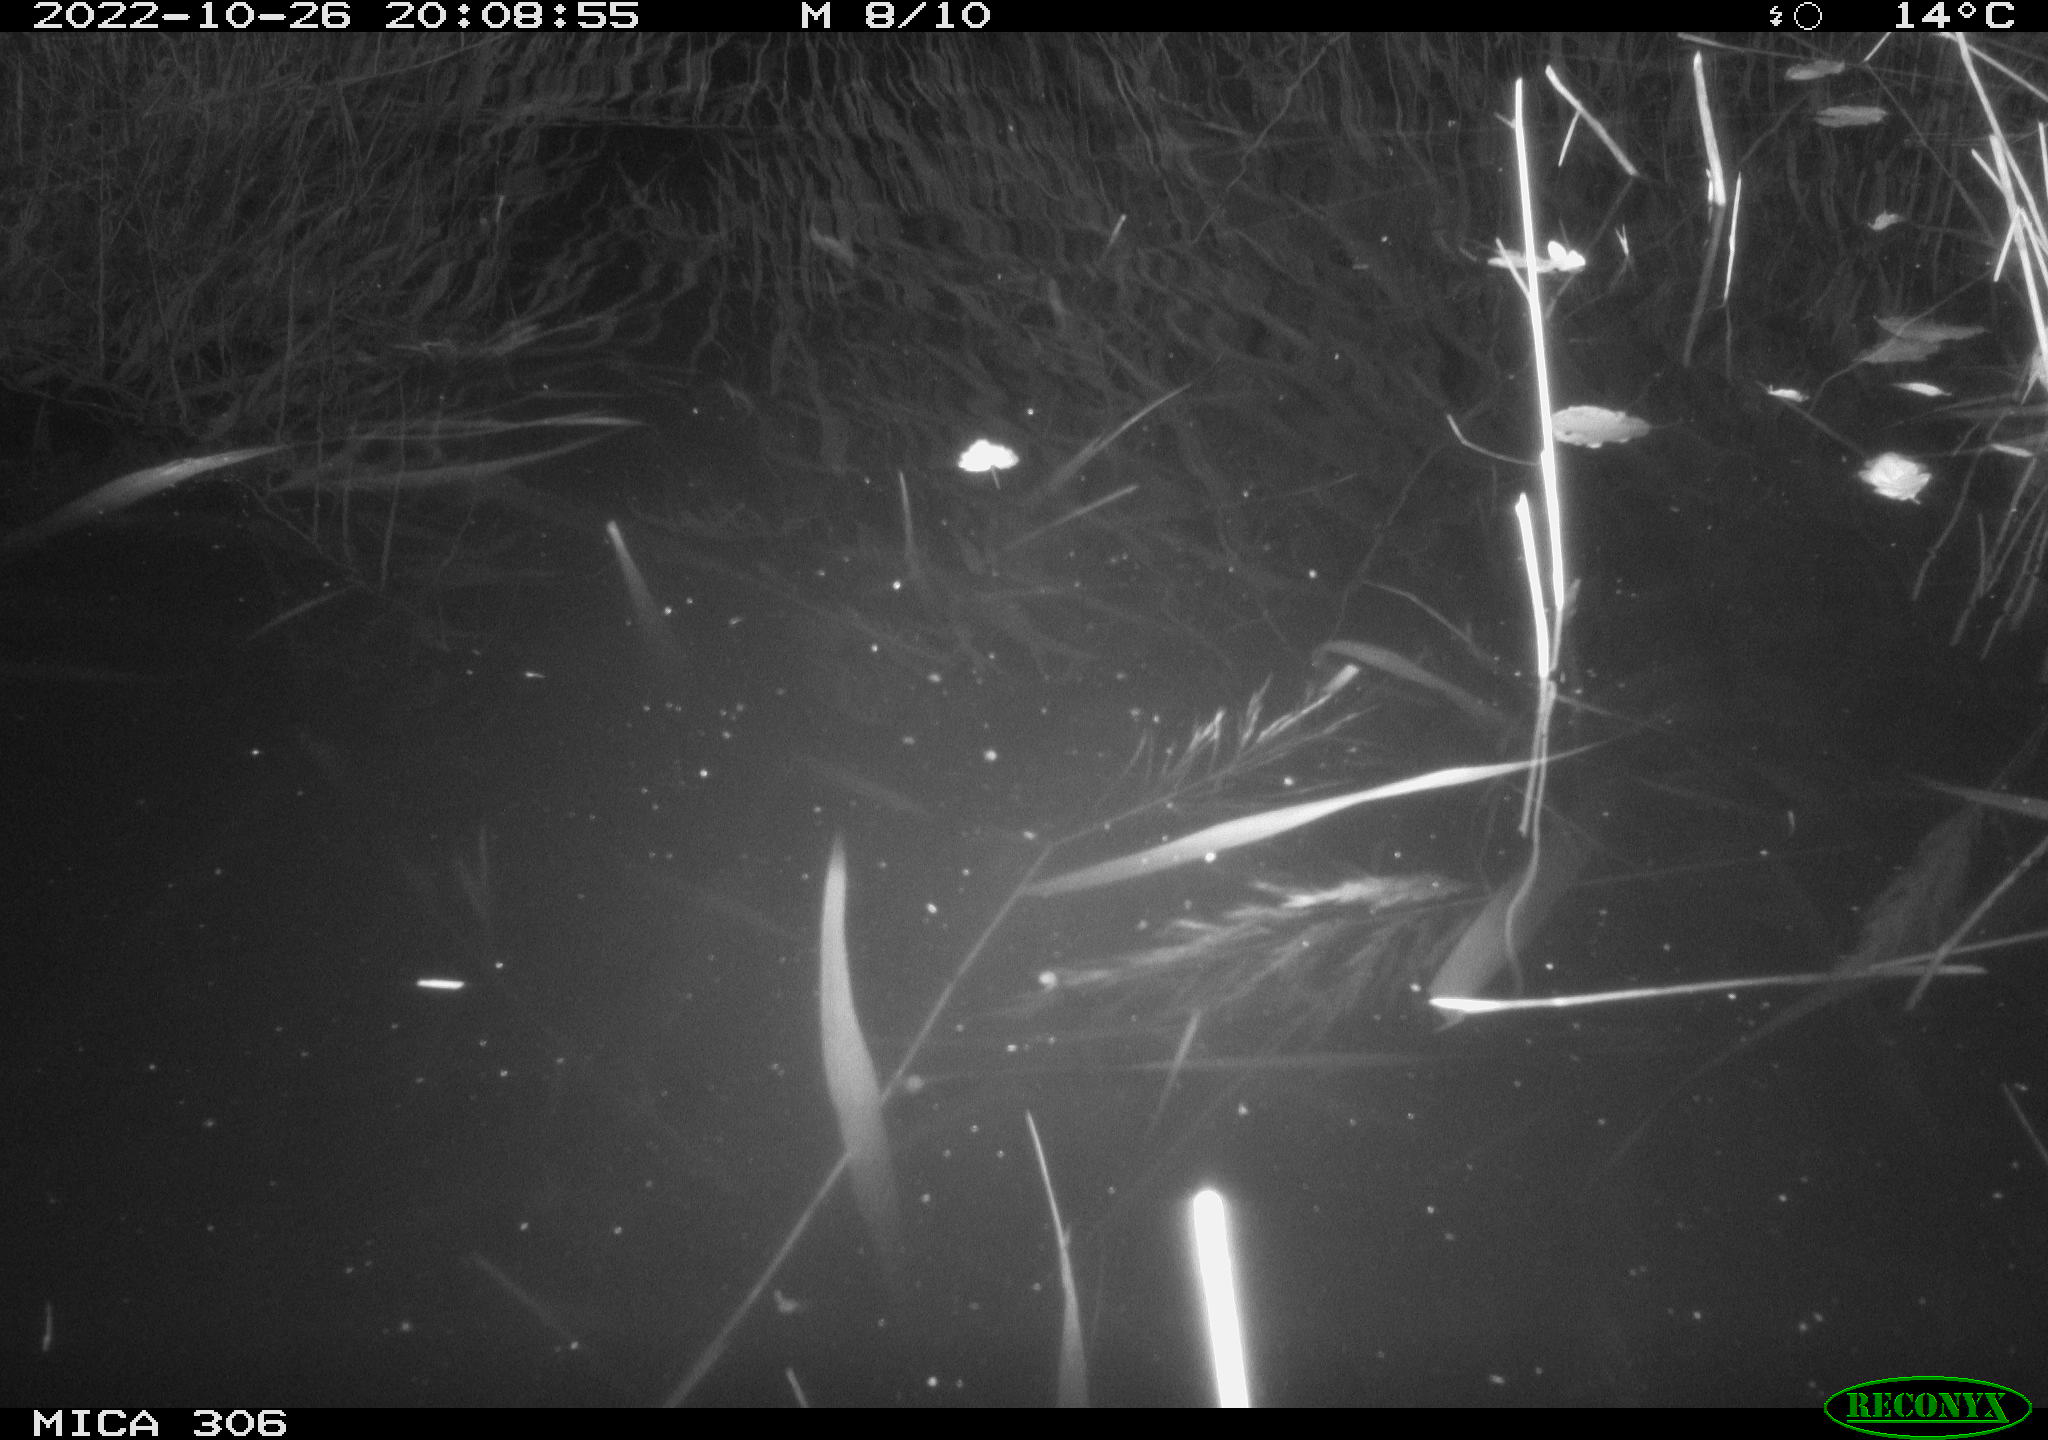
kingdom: Animalia
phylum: Chordata
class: Mammalia
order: Rodentia
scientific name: Rodentia
